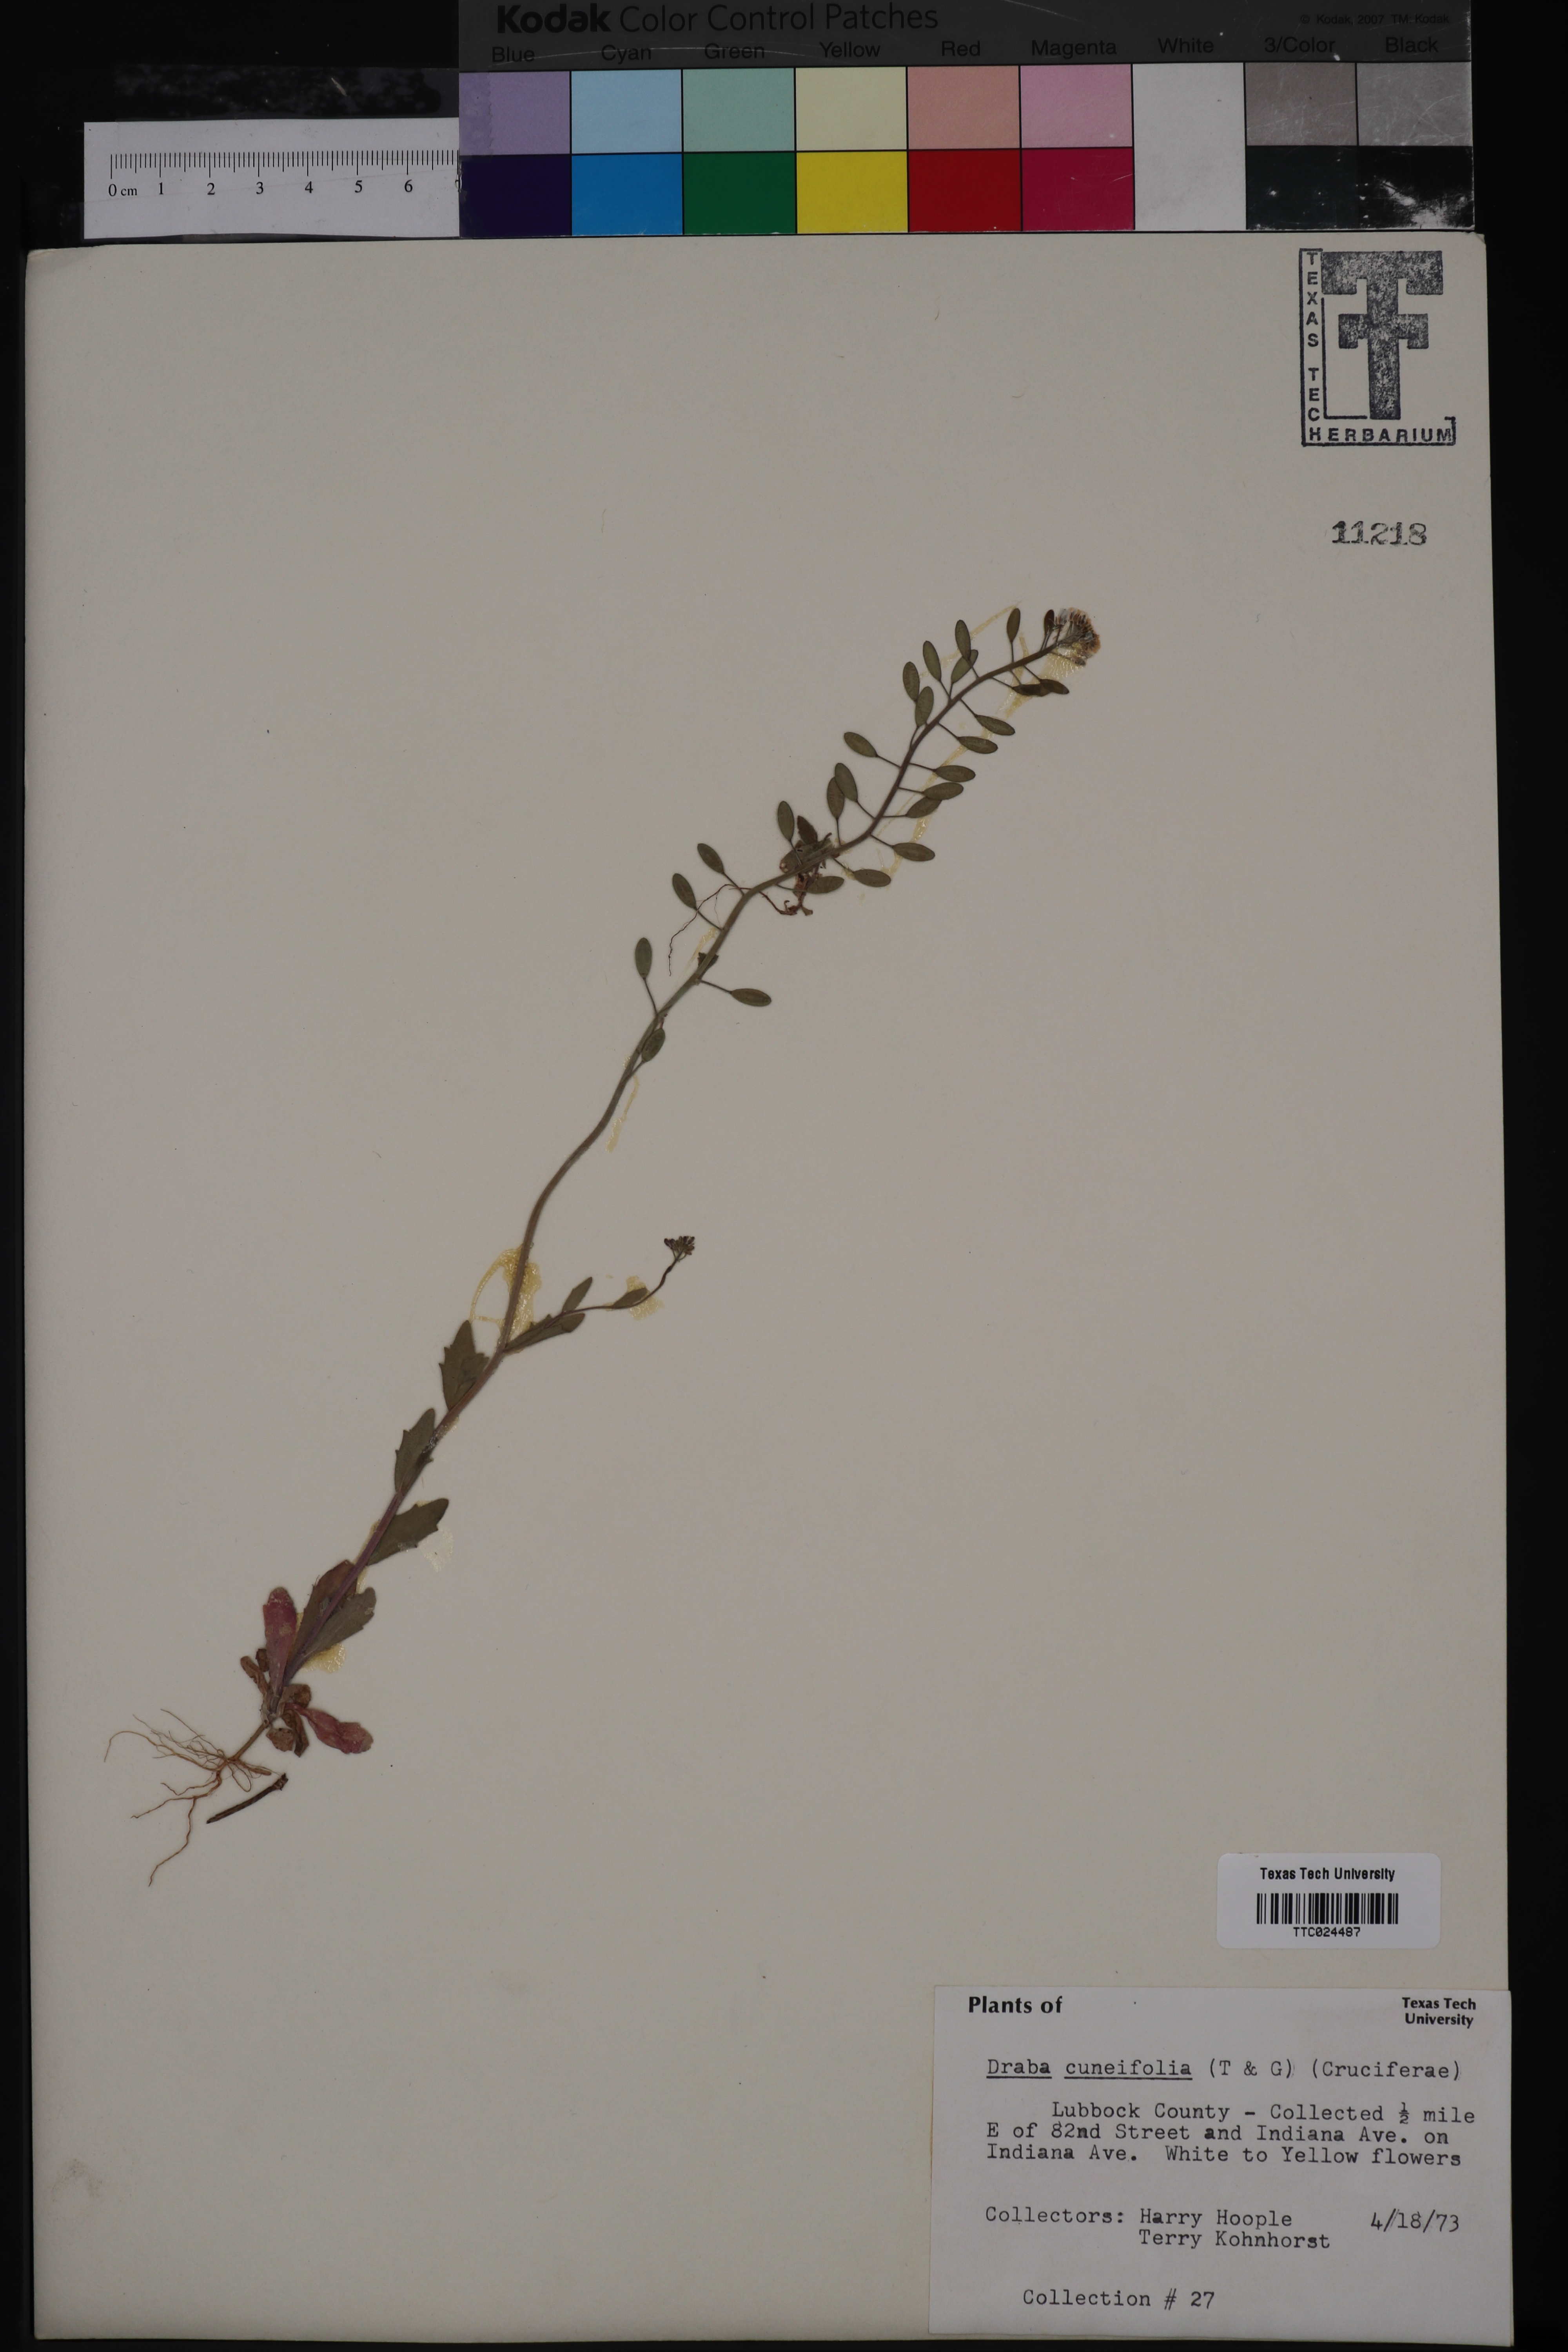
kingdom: Plantae
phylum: Tracheophyta
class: Magnoliopsida
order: Brassicales
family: Brassicaceae
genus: Tomostima
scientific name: Tomostima cuneifolia
